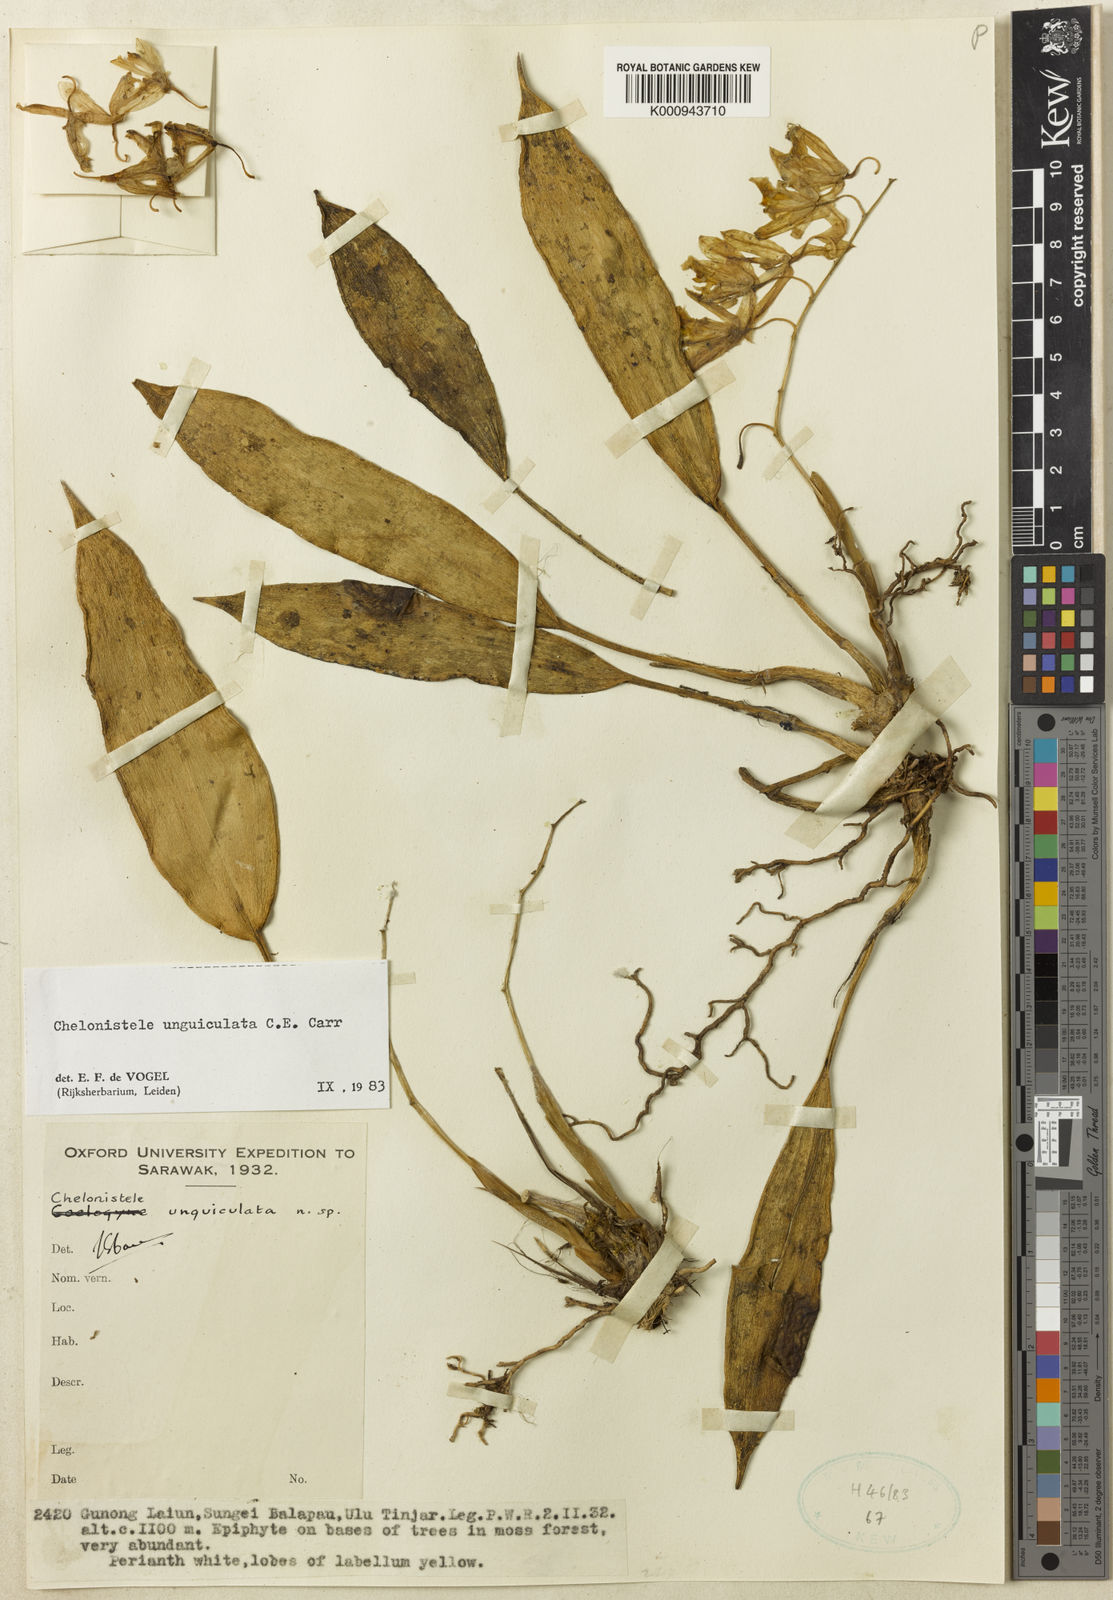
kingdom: Plantae
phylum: Tracheophyta
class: Liliopsida
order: Asparagales
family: Orchidaceae
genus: Coelogyne
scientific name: Coelogyne unguiculata
